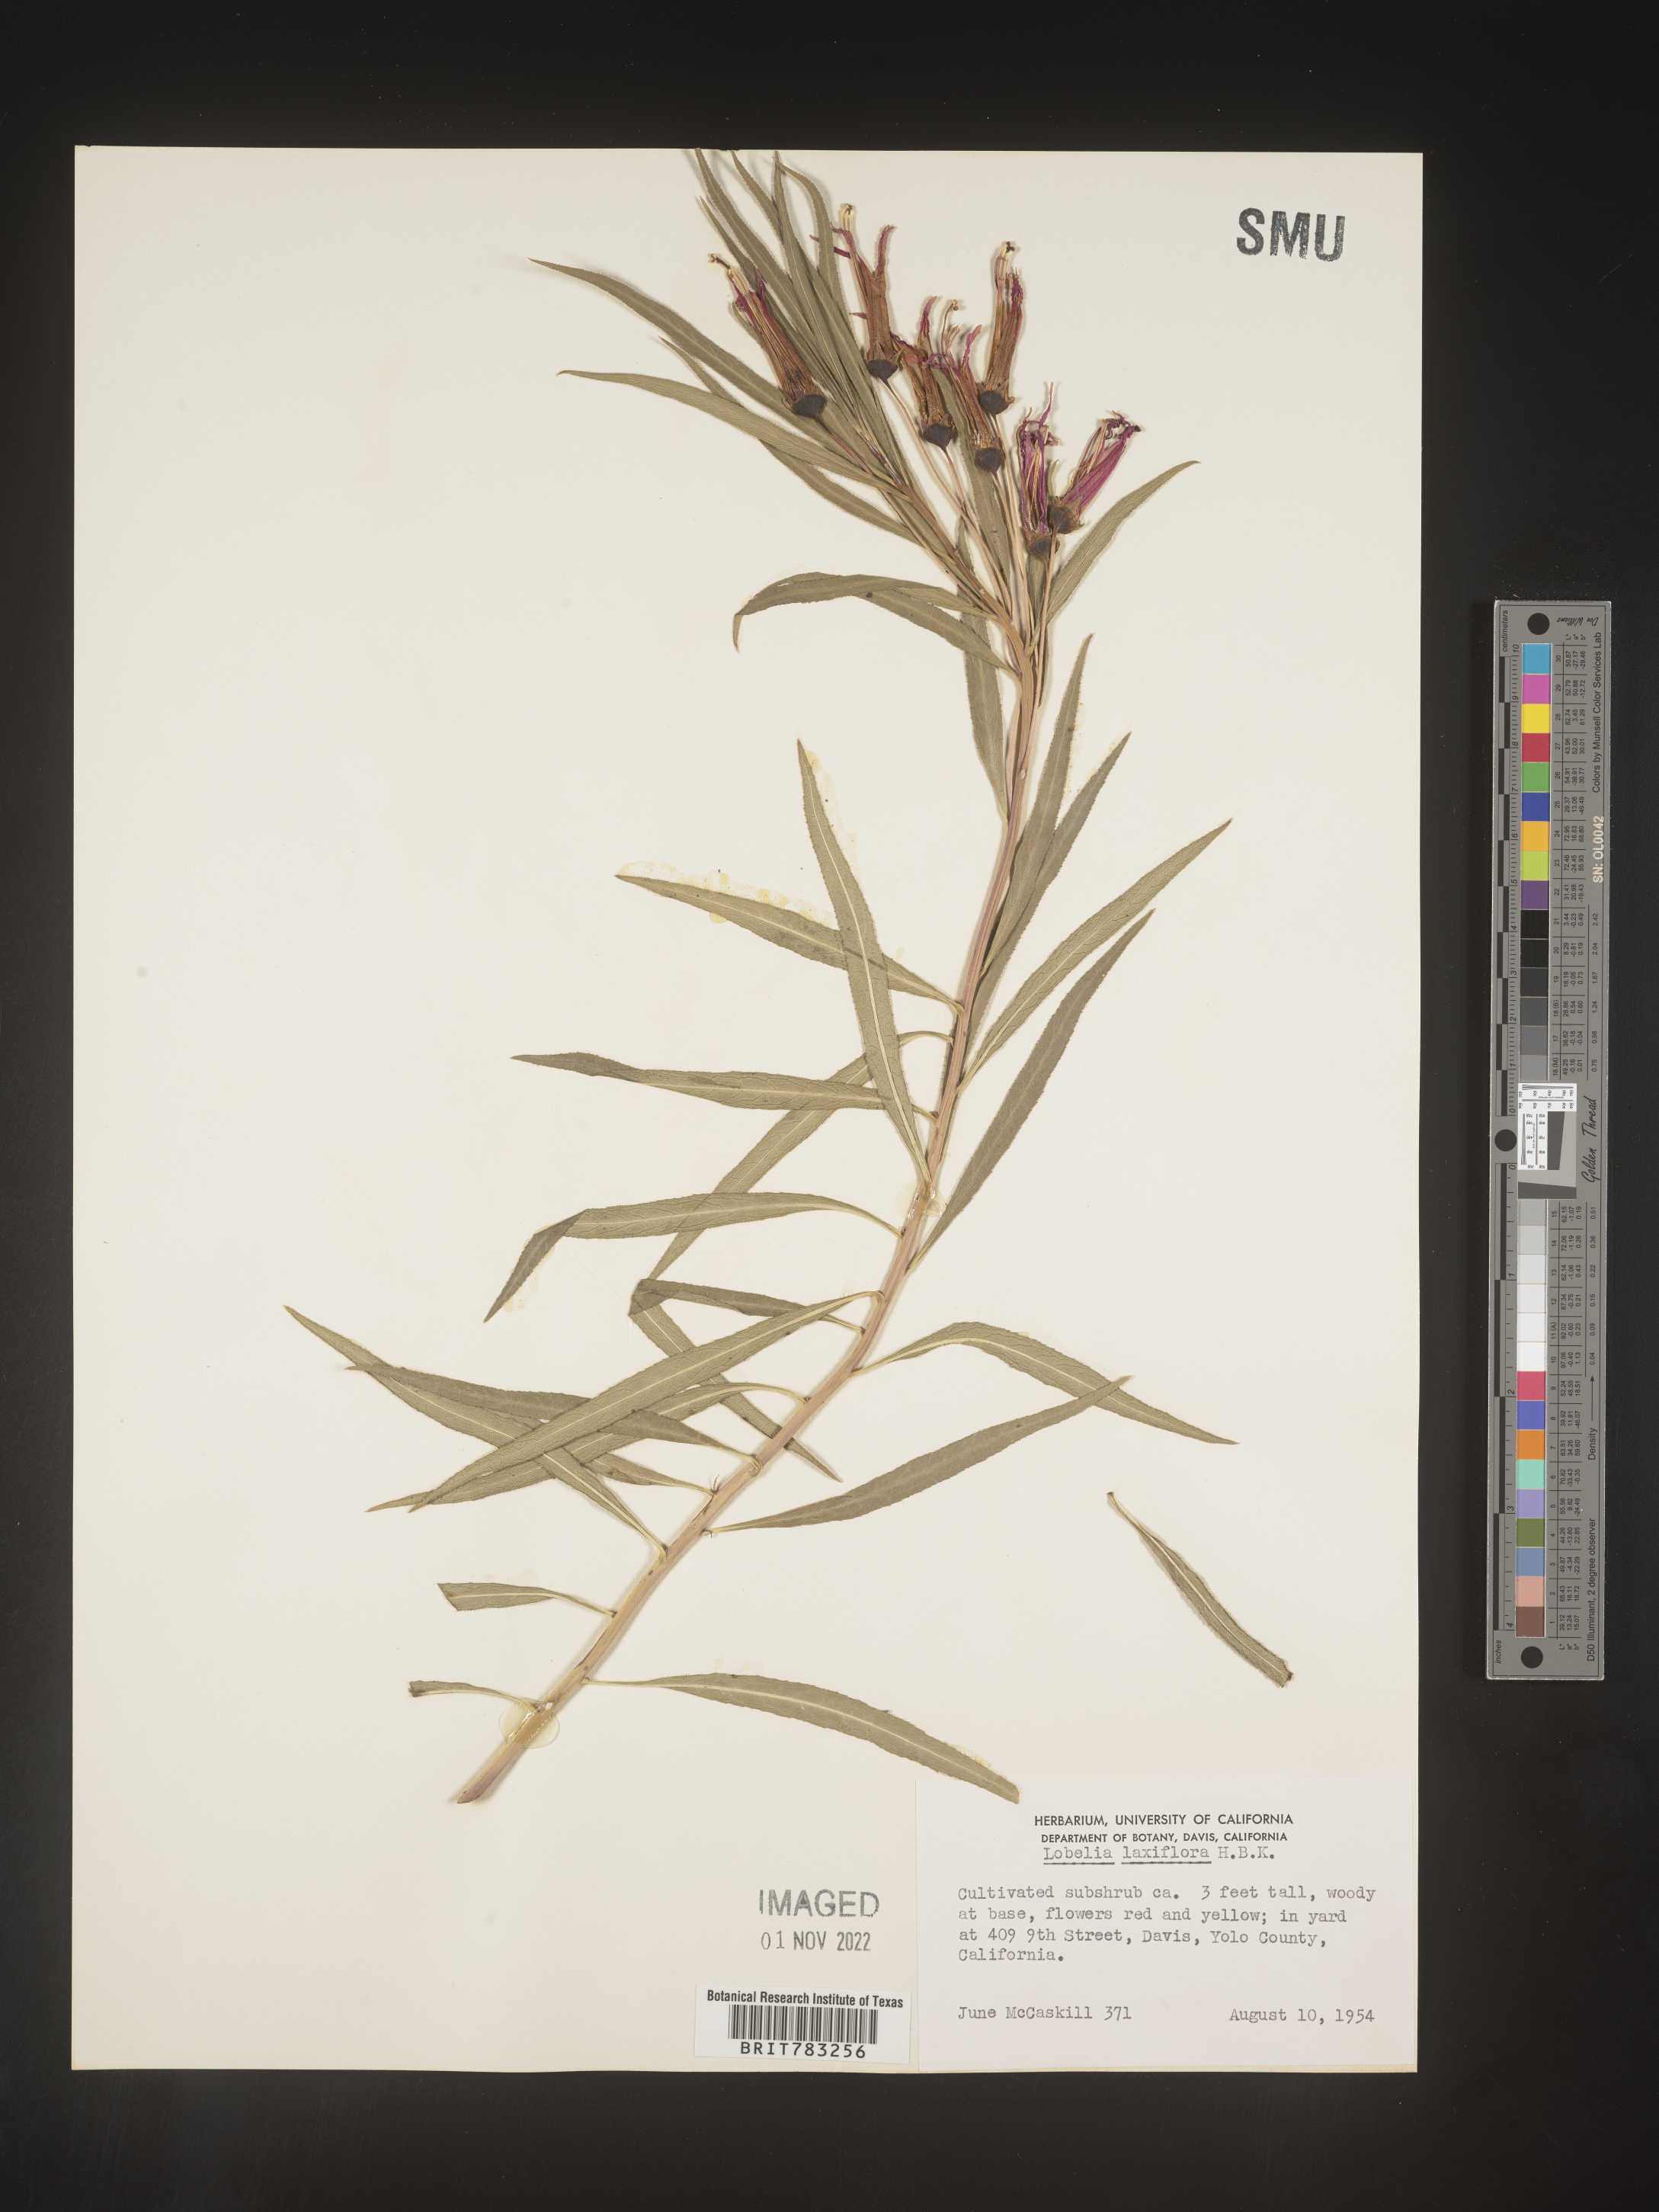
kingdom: Plantae
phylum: Tracheophyta
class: Magnoliopsida
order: Asterales
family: Campanulaceae
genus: Lobelia
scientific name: Lobelia
